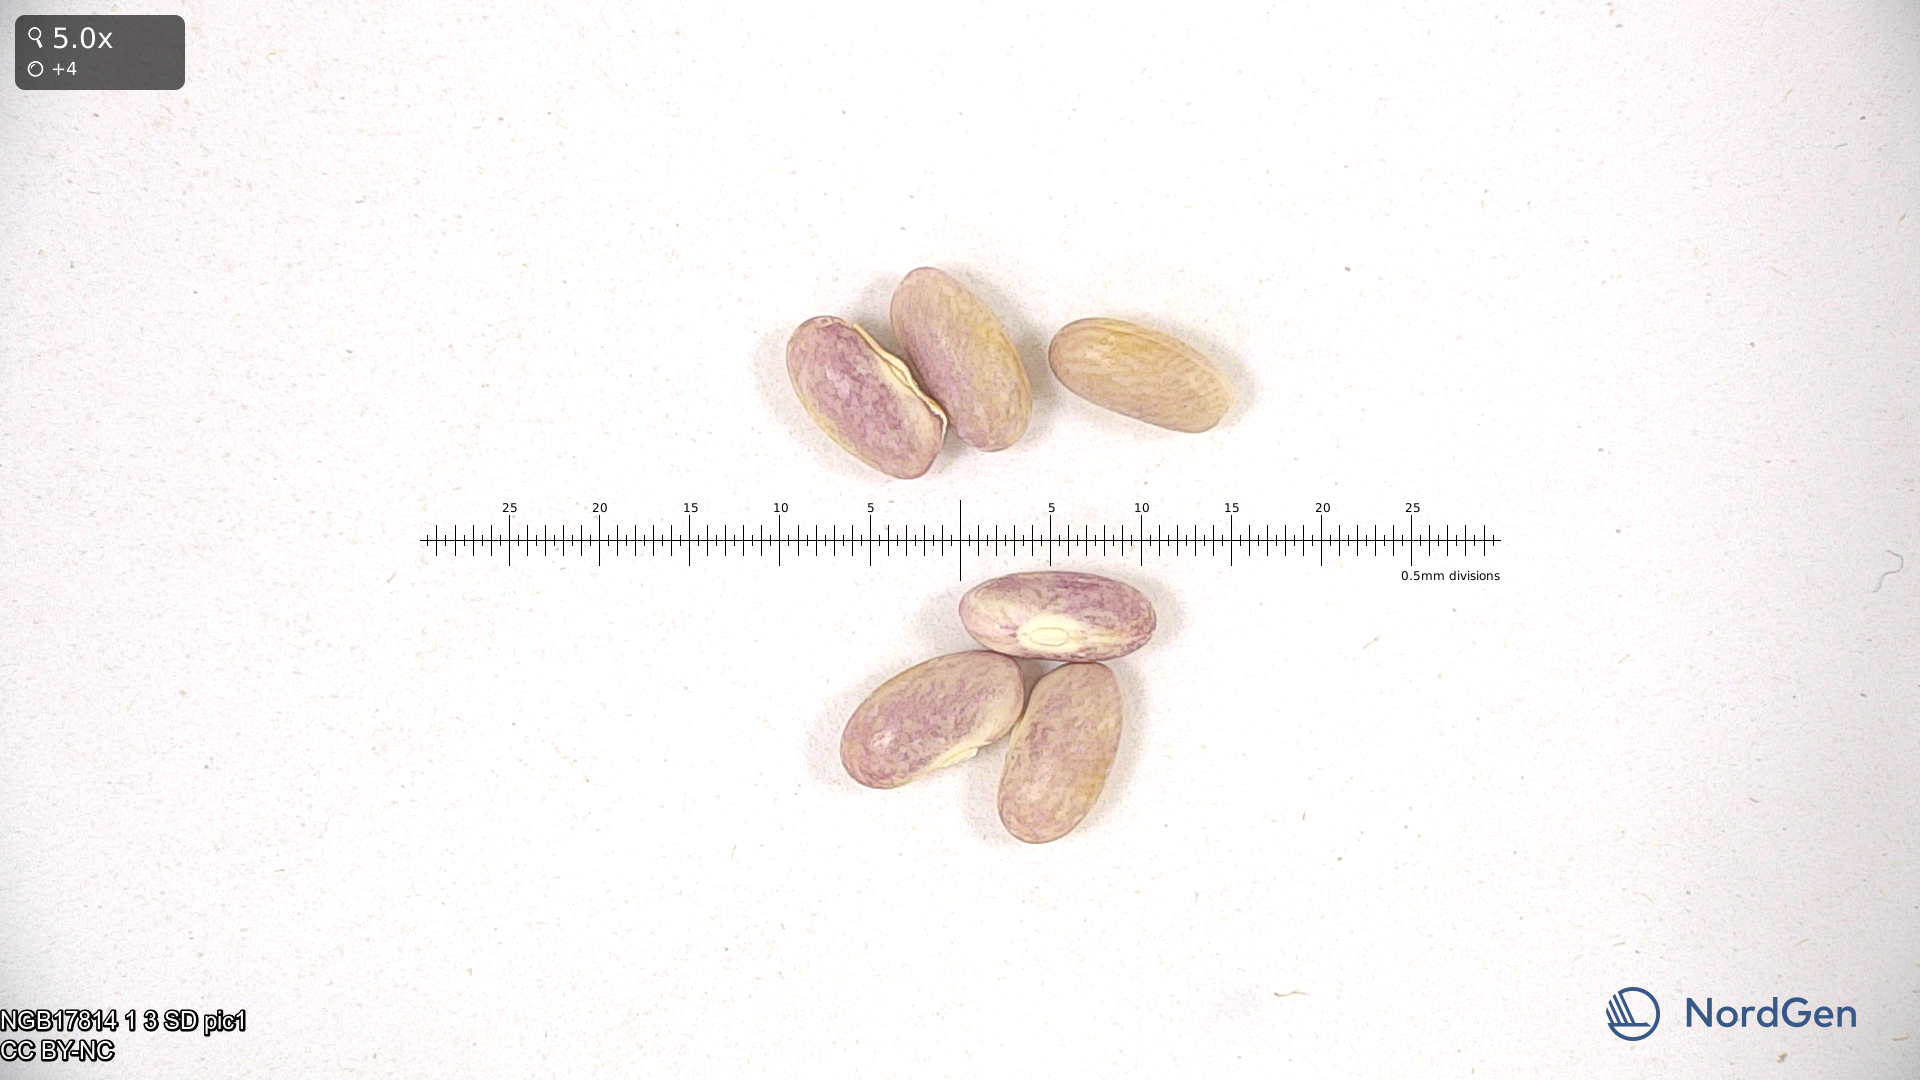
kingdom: Plantae
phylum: Tracheophyta
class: Magnoliopsida
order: Fabales
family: Fabaceae
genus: Phaseolus
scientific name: Phaseolus vulgaris
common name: Bean
